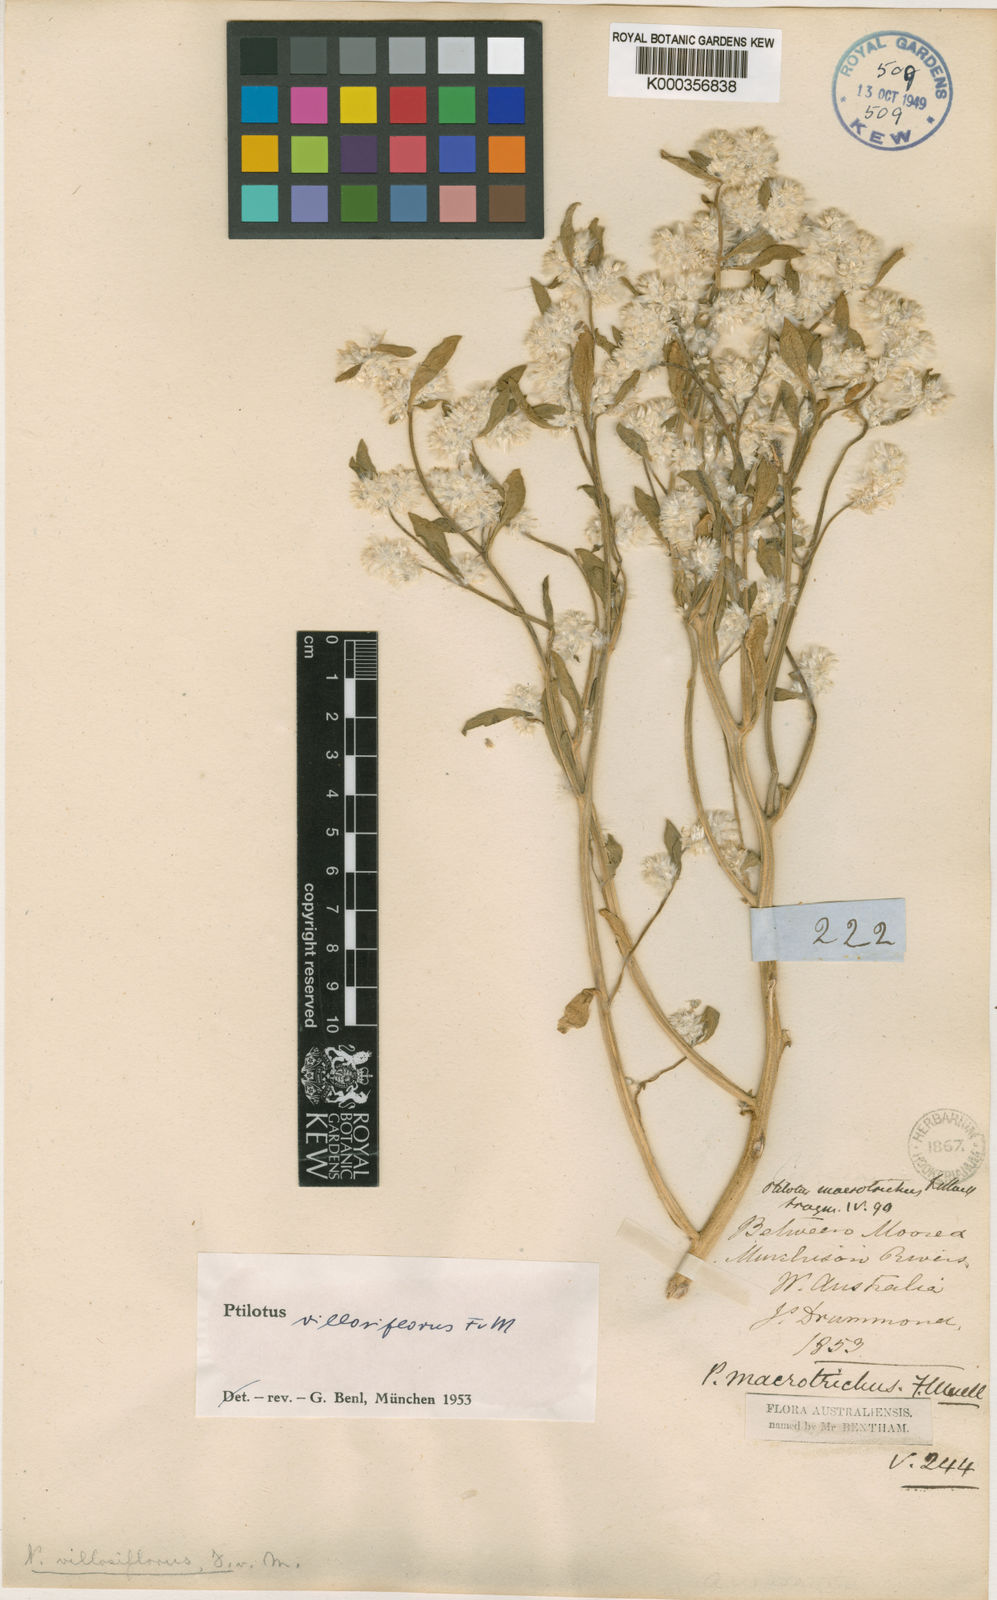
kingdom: Plantae
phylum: Tracheophyta
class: Magnoliopsida
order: Caryophyllales
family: Amaranthaceae
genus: Ptilotus
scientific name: Ptilotus villosiflorus
